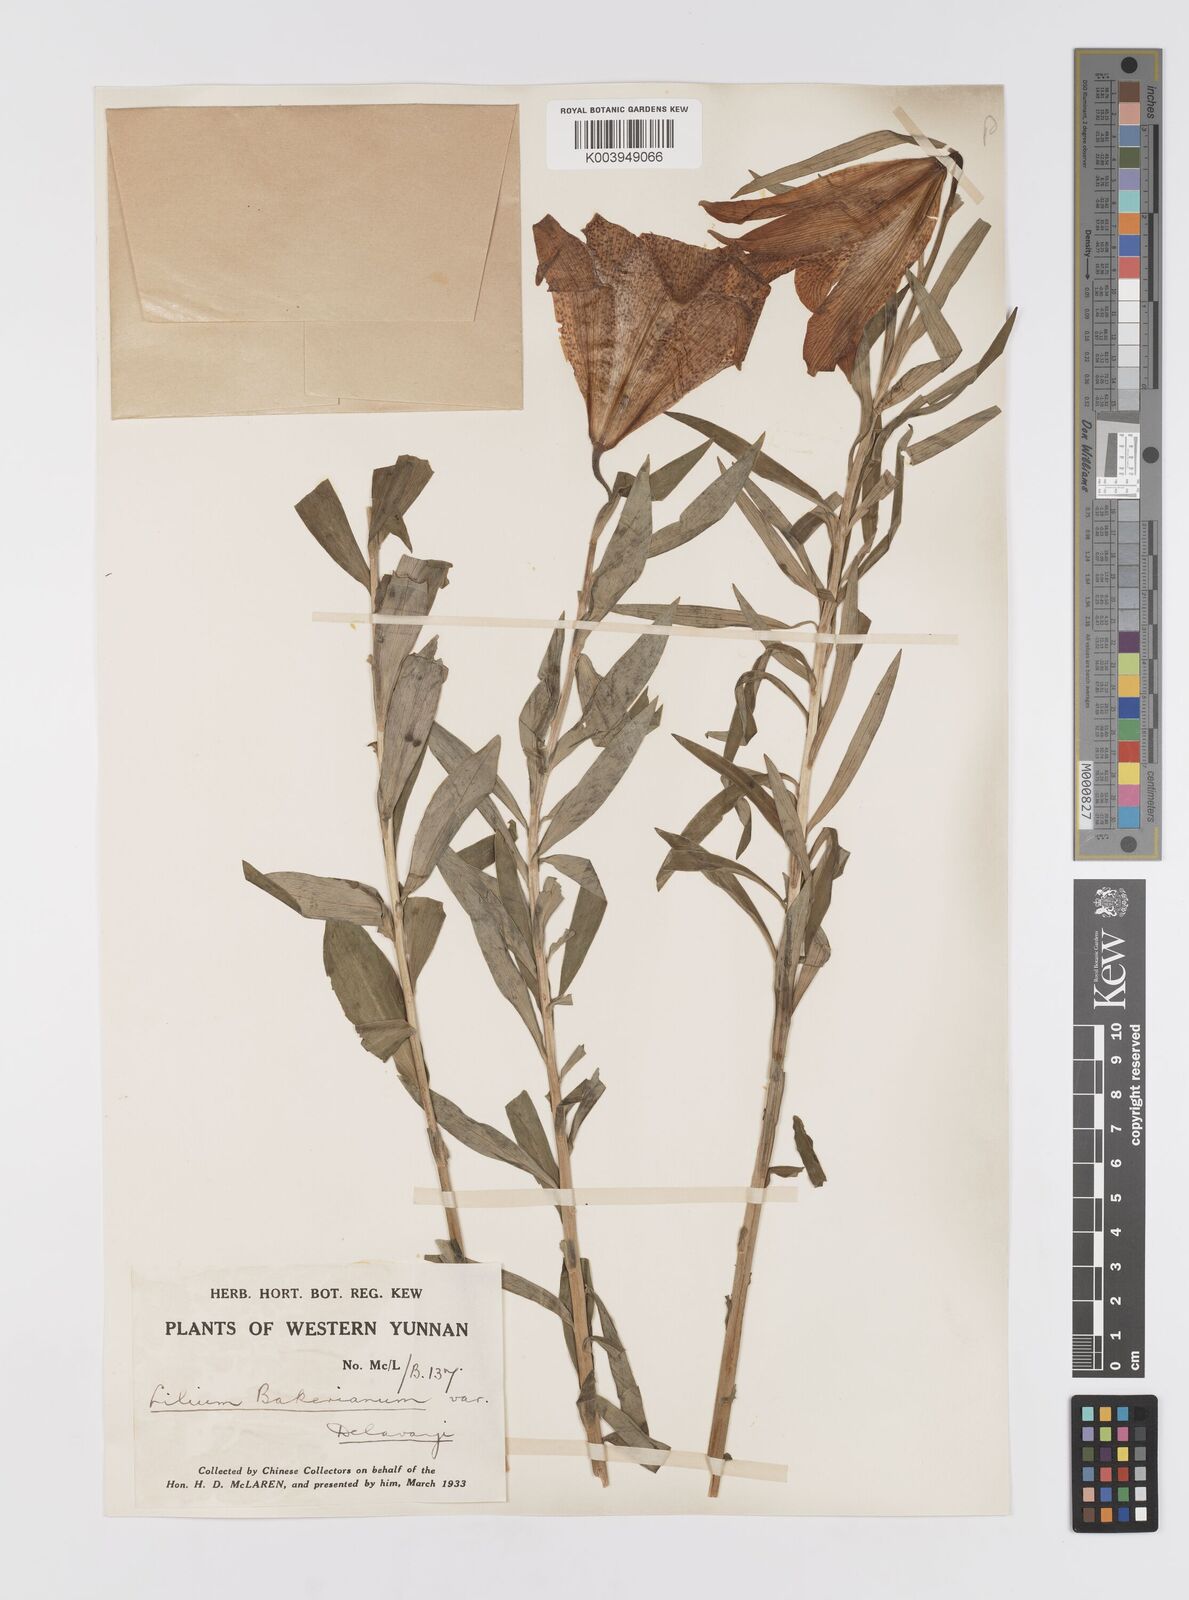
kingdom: Plantae
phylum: Tracheophyta
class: Liliopsida
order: Liliales
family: Liliaceae
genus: Lilium
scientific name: Lilium bakerianum
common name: Baker's lily
